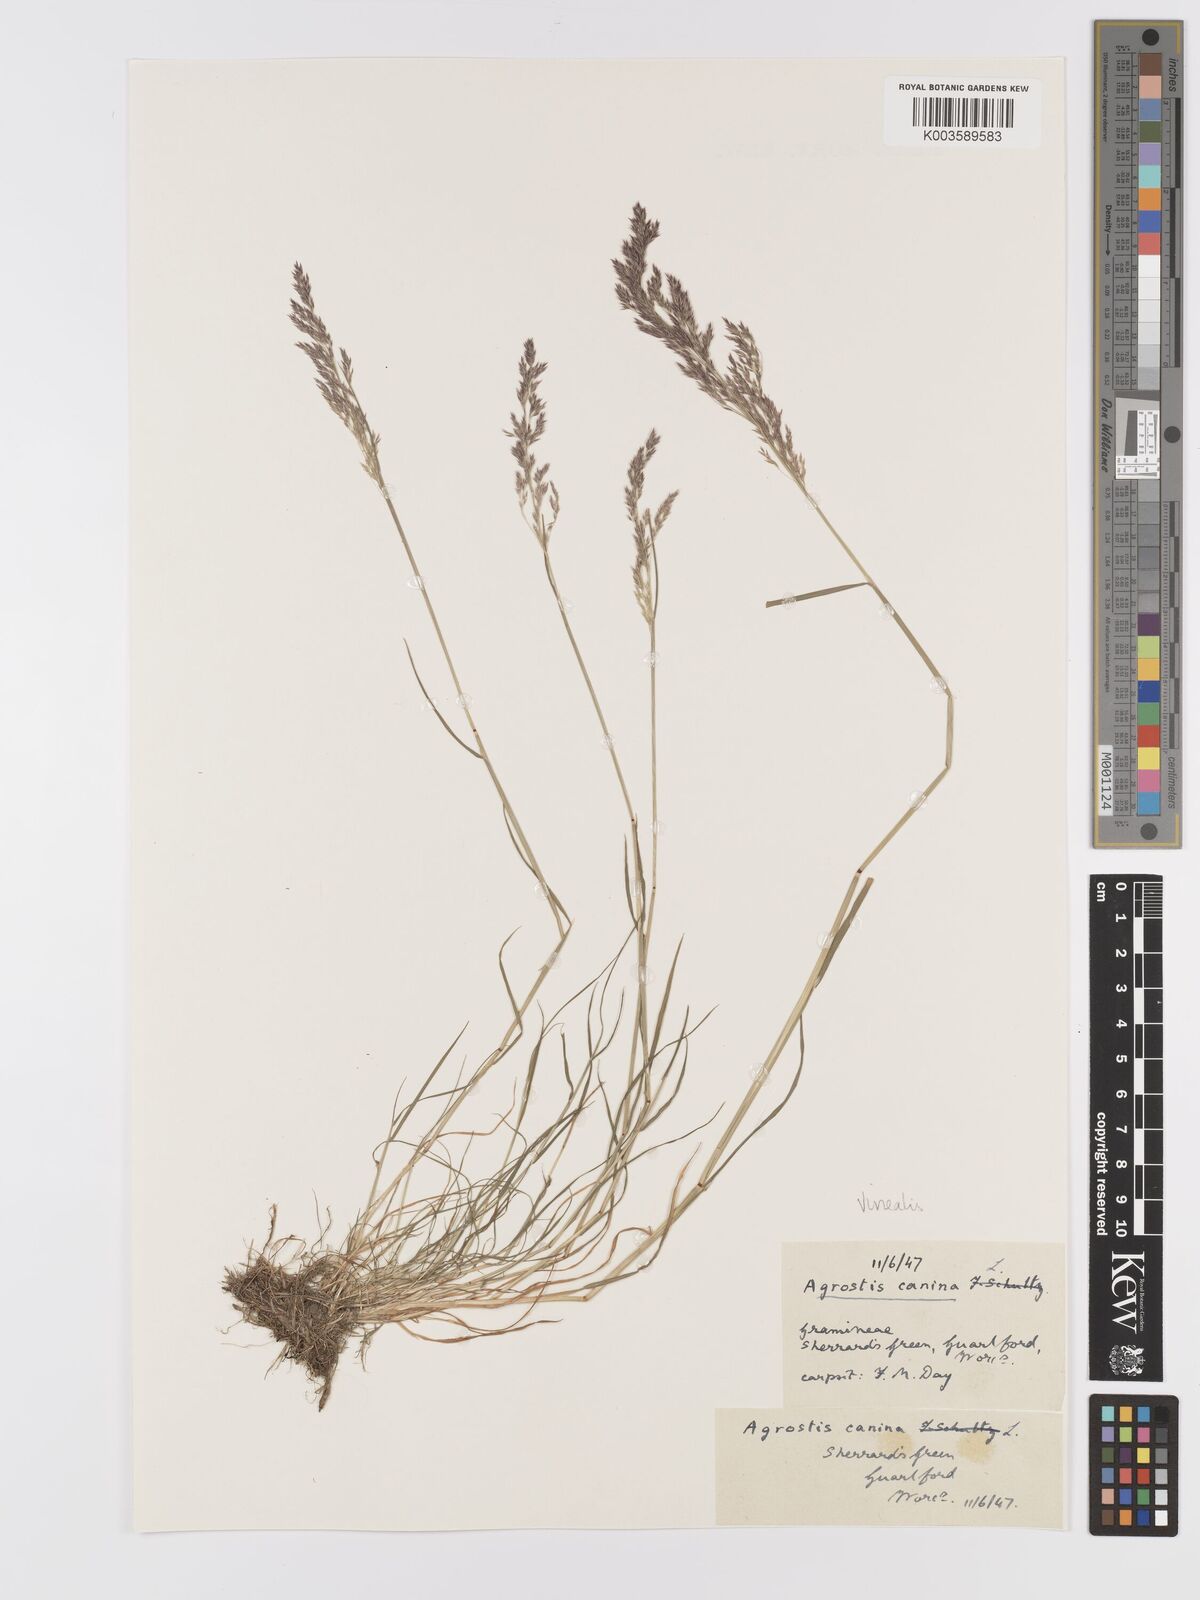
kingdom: Plantae
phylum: Tracheophyta
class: Liliopsida
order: Poales
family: Poaceae
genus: Agrostis
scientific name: Agrostis
